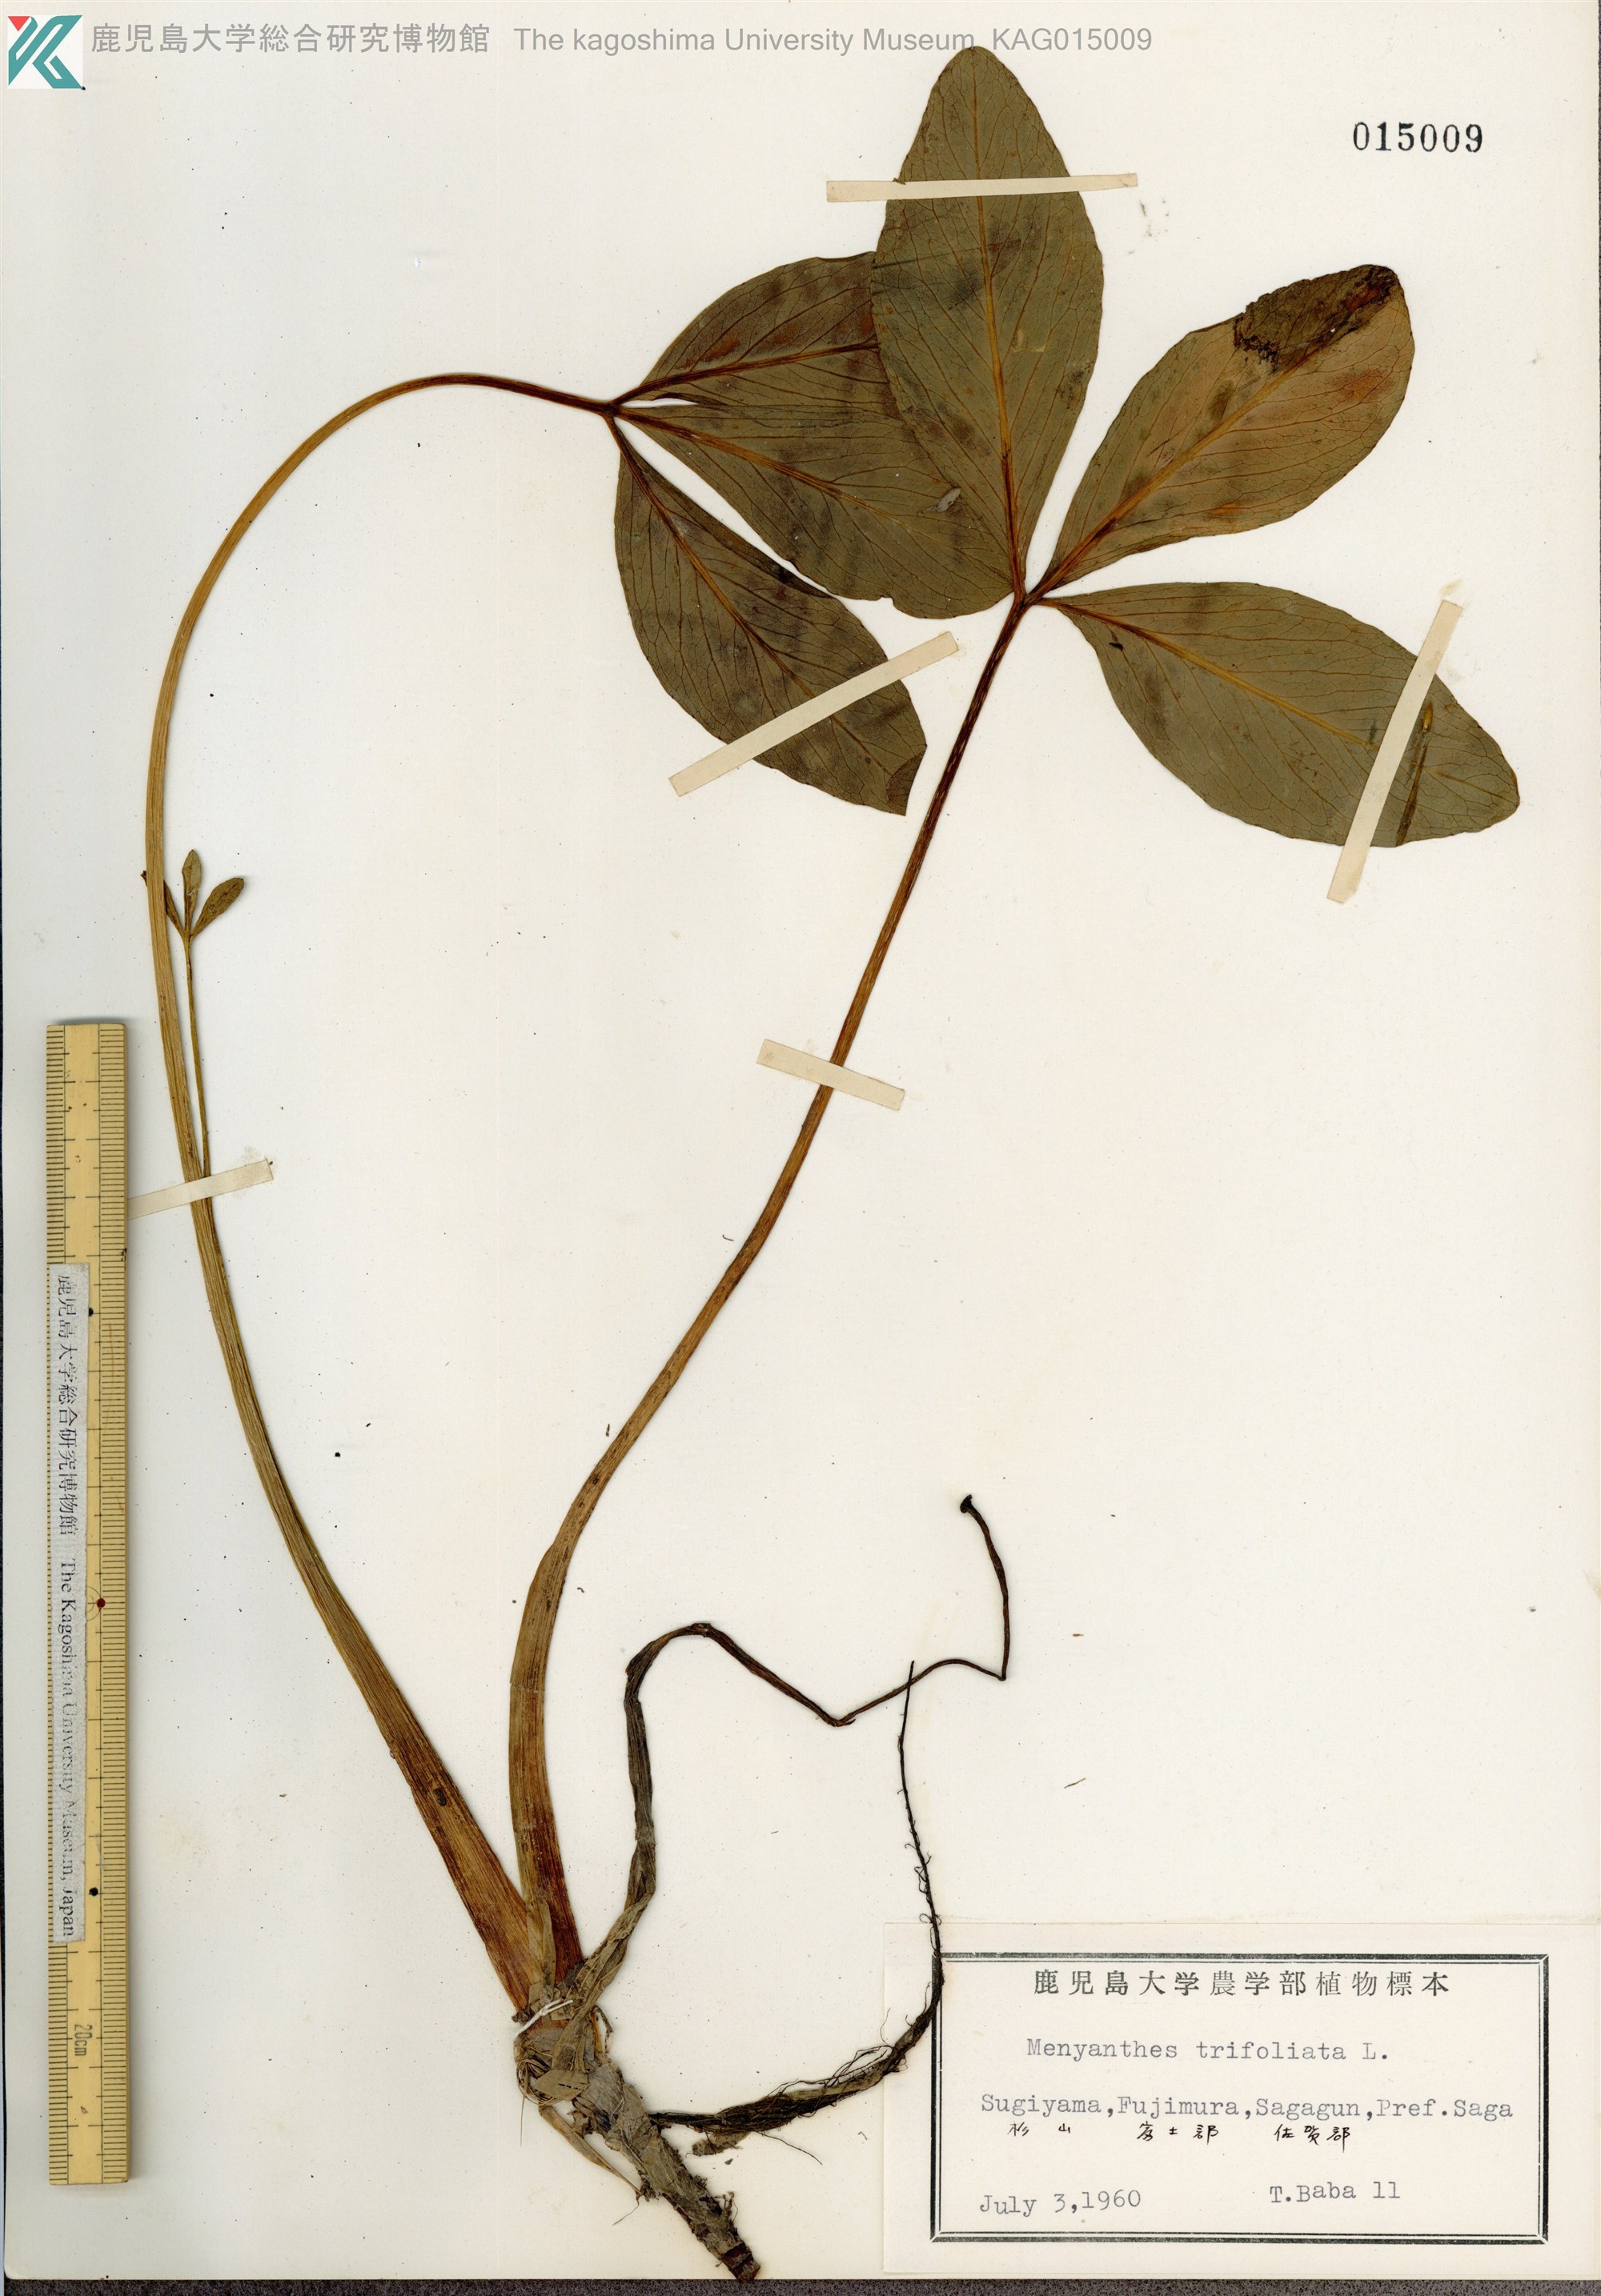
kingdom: Plantae
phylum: Tracheophyta
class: Magnoliopsida
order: Asterales
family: Menyanthaceae
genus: Menyanthes
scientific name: Menyanthes trifoliata
